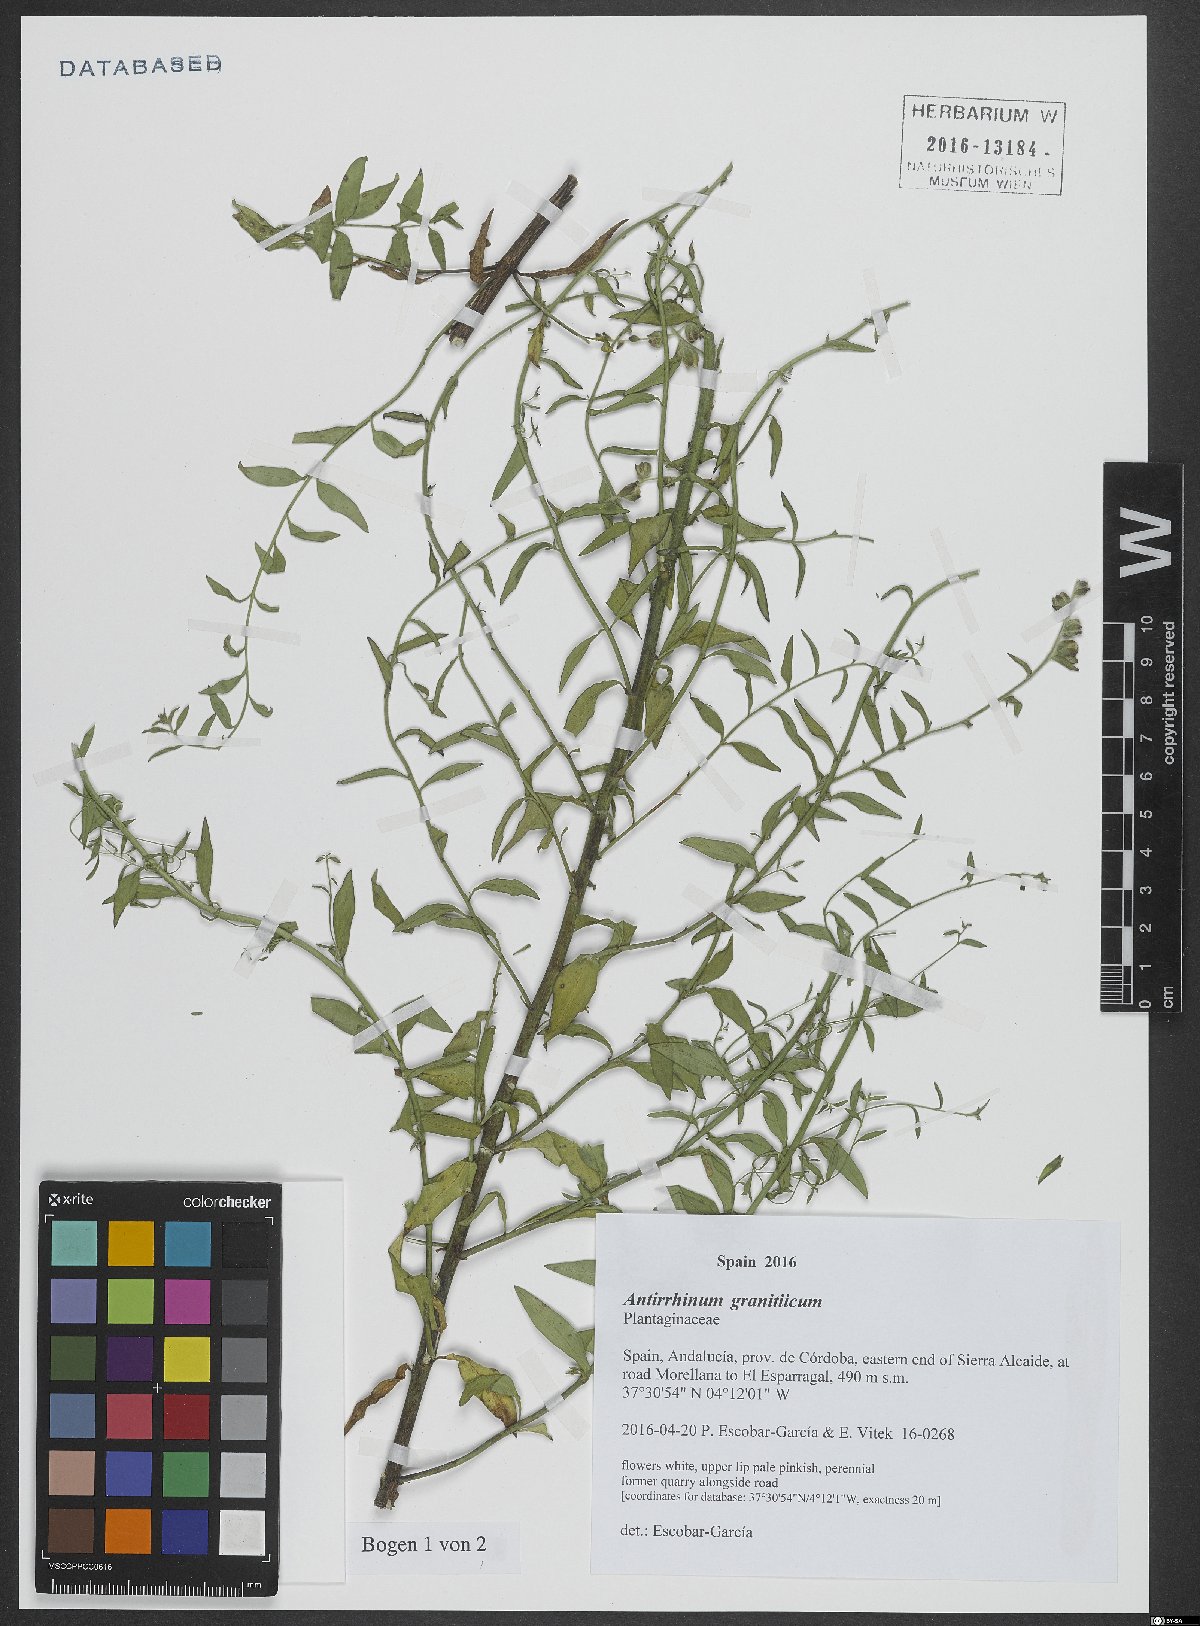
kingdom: Plantae
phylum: Tracheophyta
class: Magnoliopsida
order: Lamiales
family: Plantaginaceae
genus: Antirrhinum
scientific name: Antirrhinum graniticum
